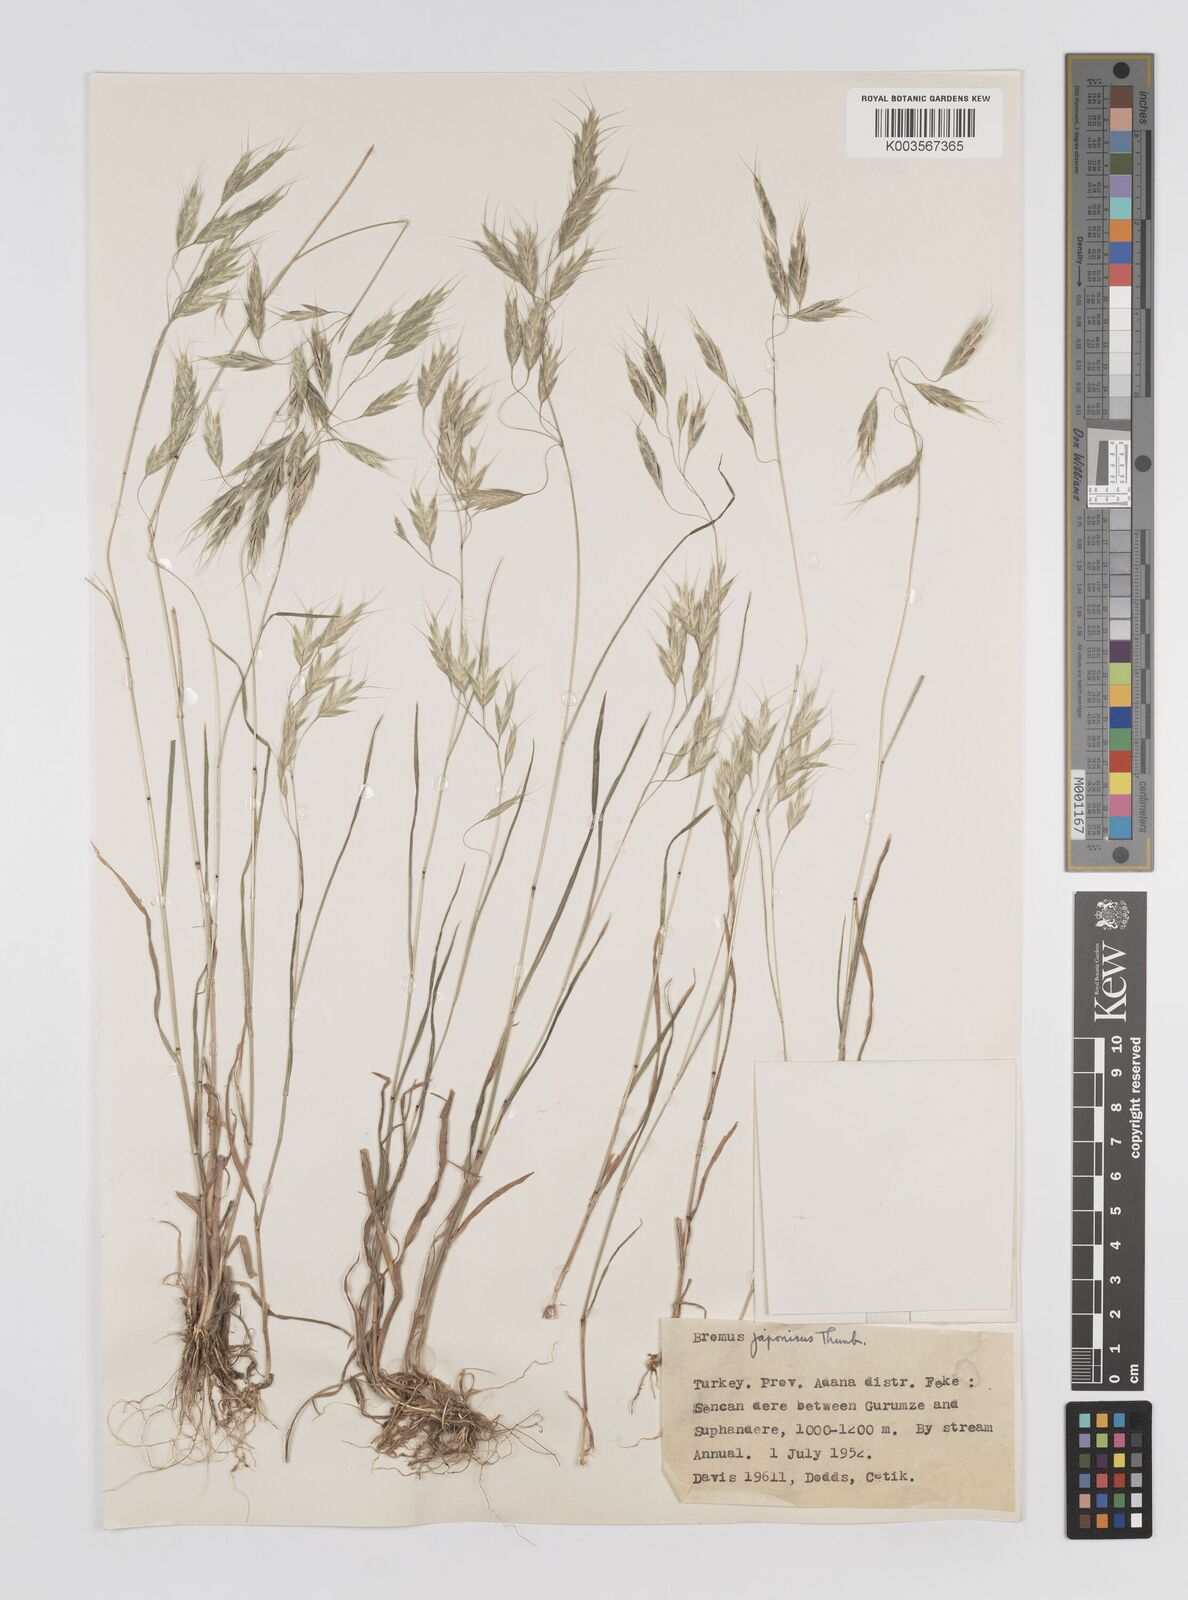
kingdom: Plantae
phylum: Tracheophyta
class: Liliopsida
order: Poales
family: Poaceae
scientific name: Poaceae
